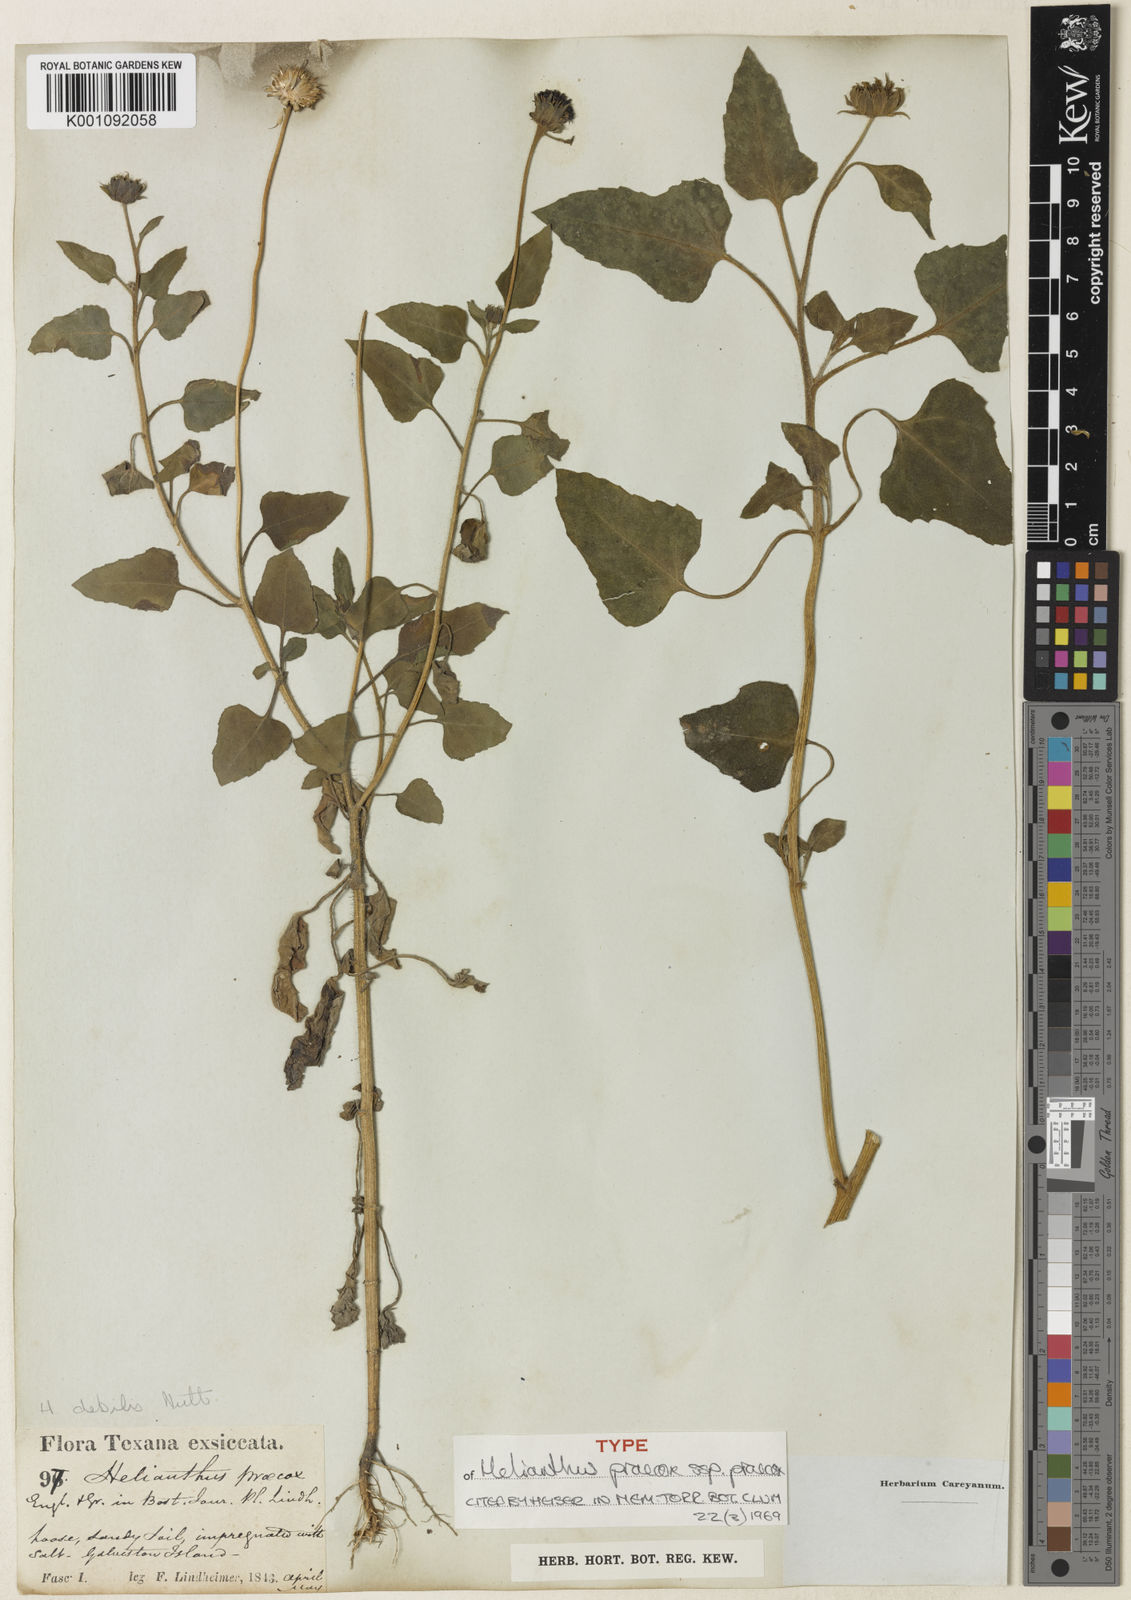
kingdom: Plantae
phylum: Tracheophyta
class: Magnoliopsida
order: Asterales
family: Asteraceae
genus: Helianthus
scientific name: Helianthus praecox
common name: Texas sunflower
